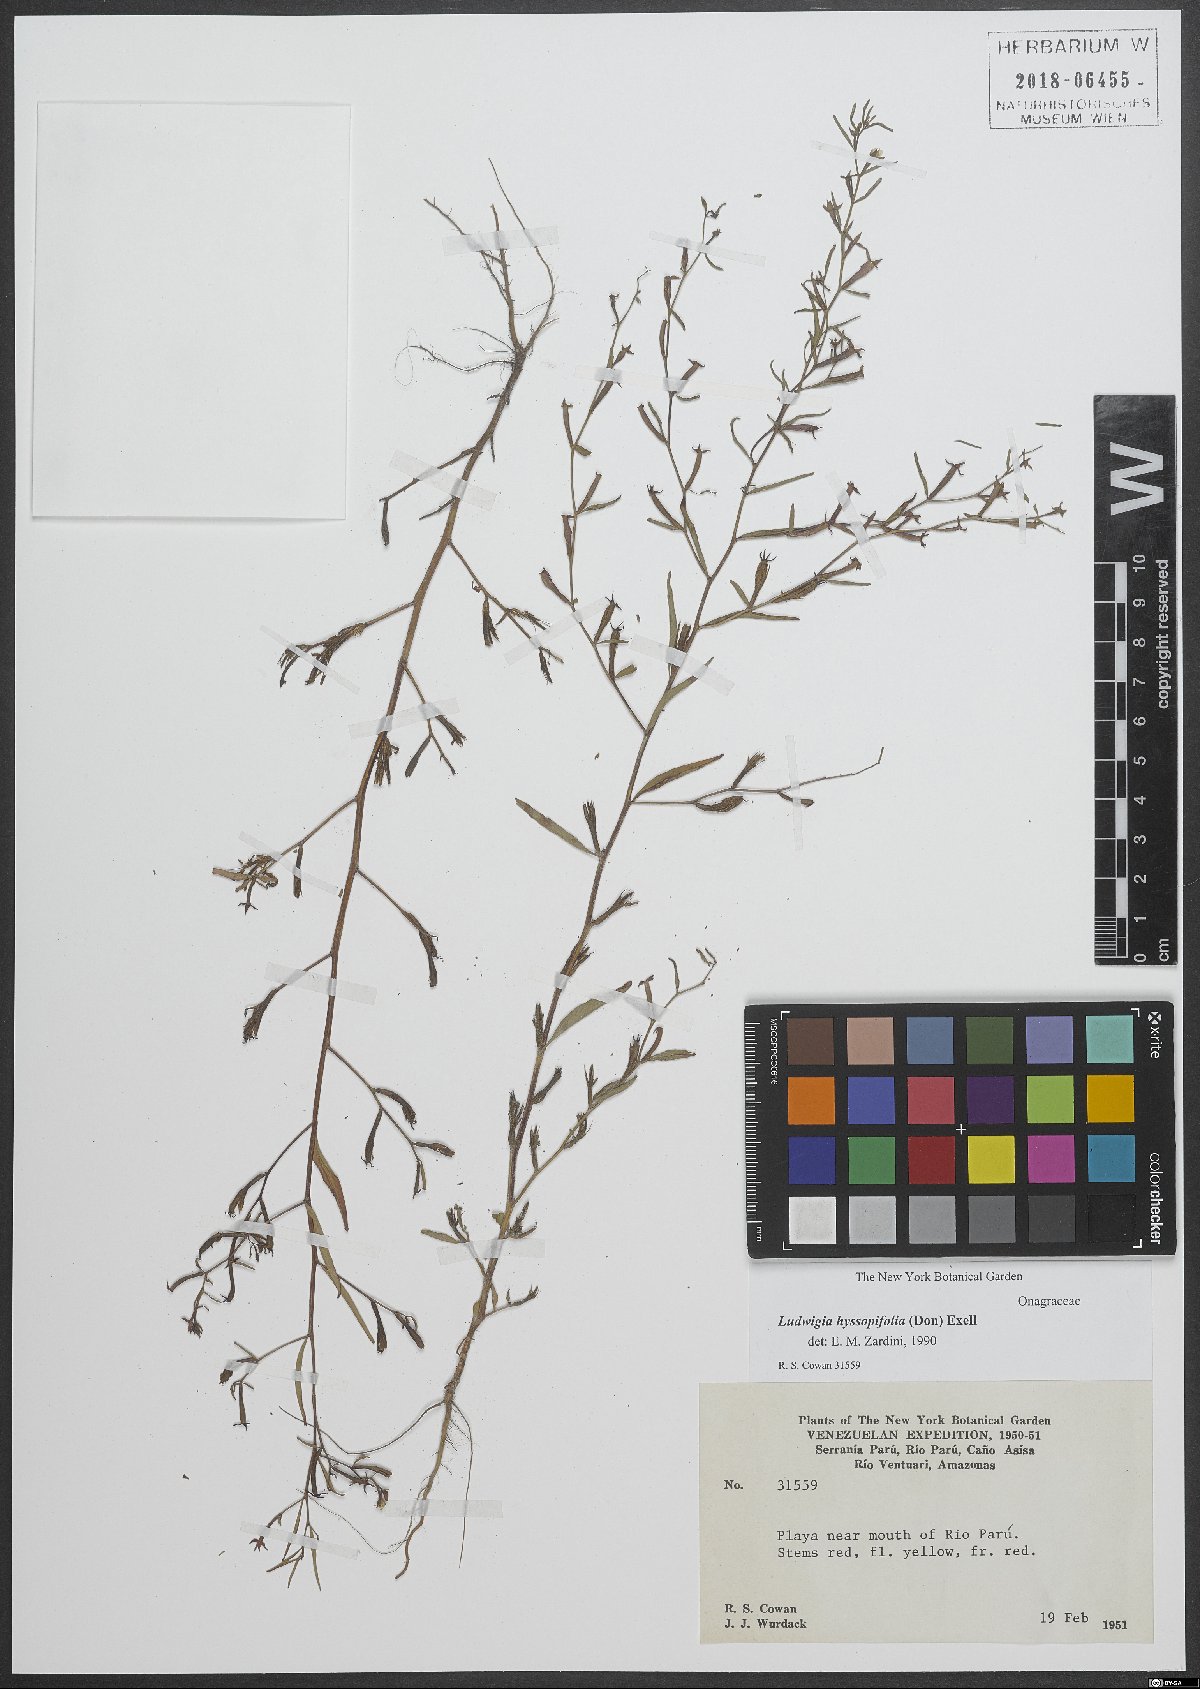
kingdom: Plantae
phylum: Tracheophyta
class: Magnoliopsida
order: Myrtales
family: Onagraceae
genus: Ludwigia
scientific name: Ludwigia hyssopifolia
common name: Linear leaf water primrose
